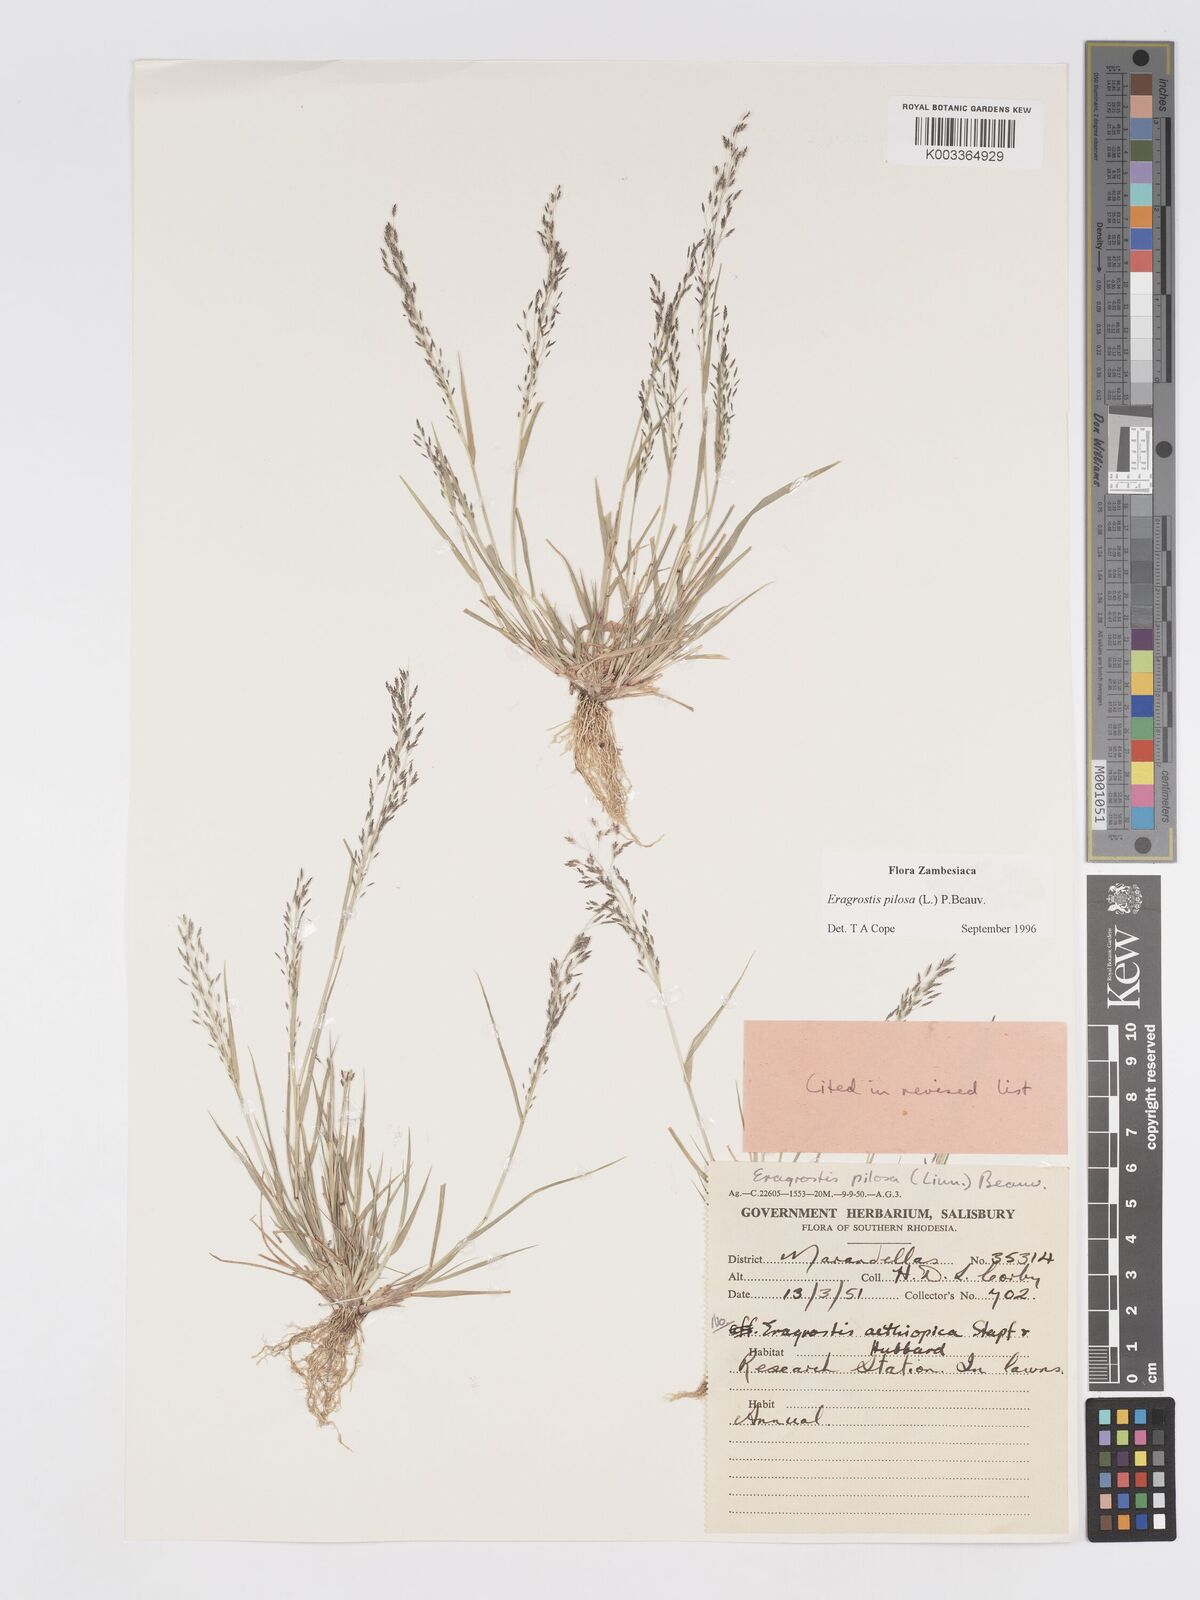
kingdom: Plantae
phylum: Tracheophyta
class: Liliopsida
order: Poales
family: Poaceae
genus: Eragrostis
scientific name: Eragrostis pilosa
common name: Indian lovegrass
